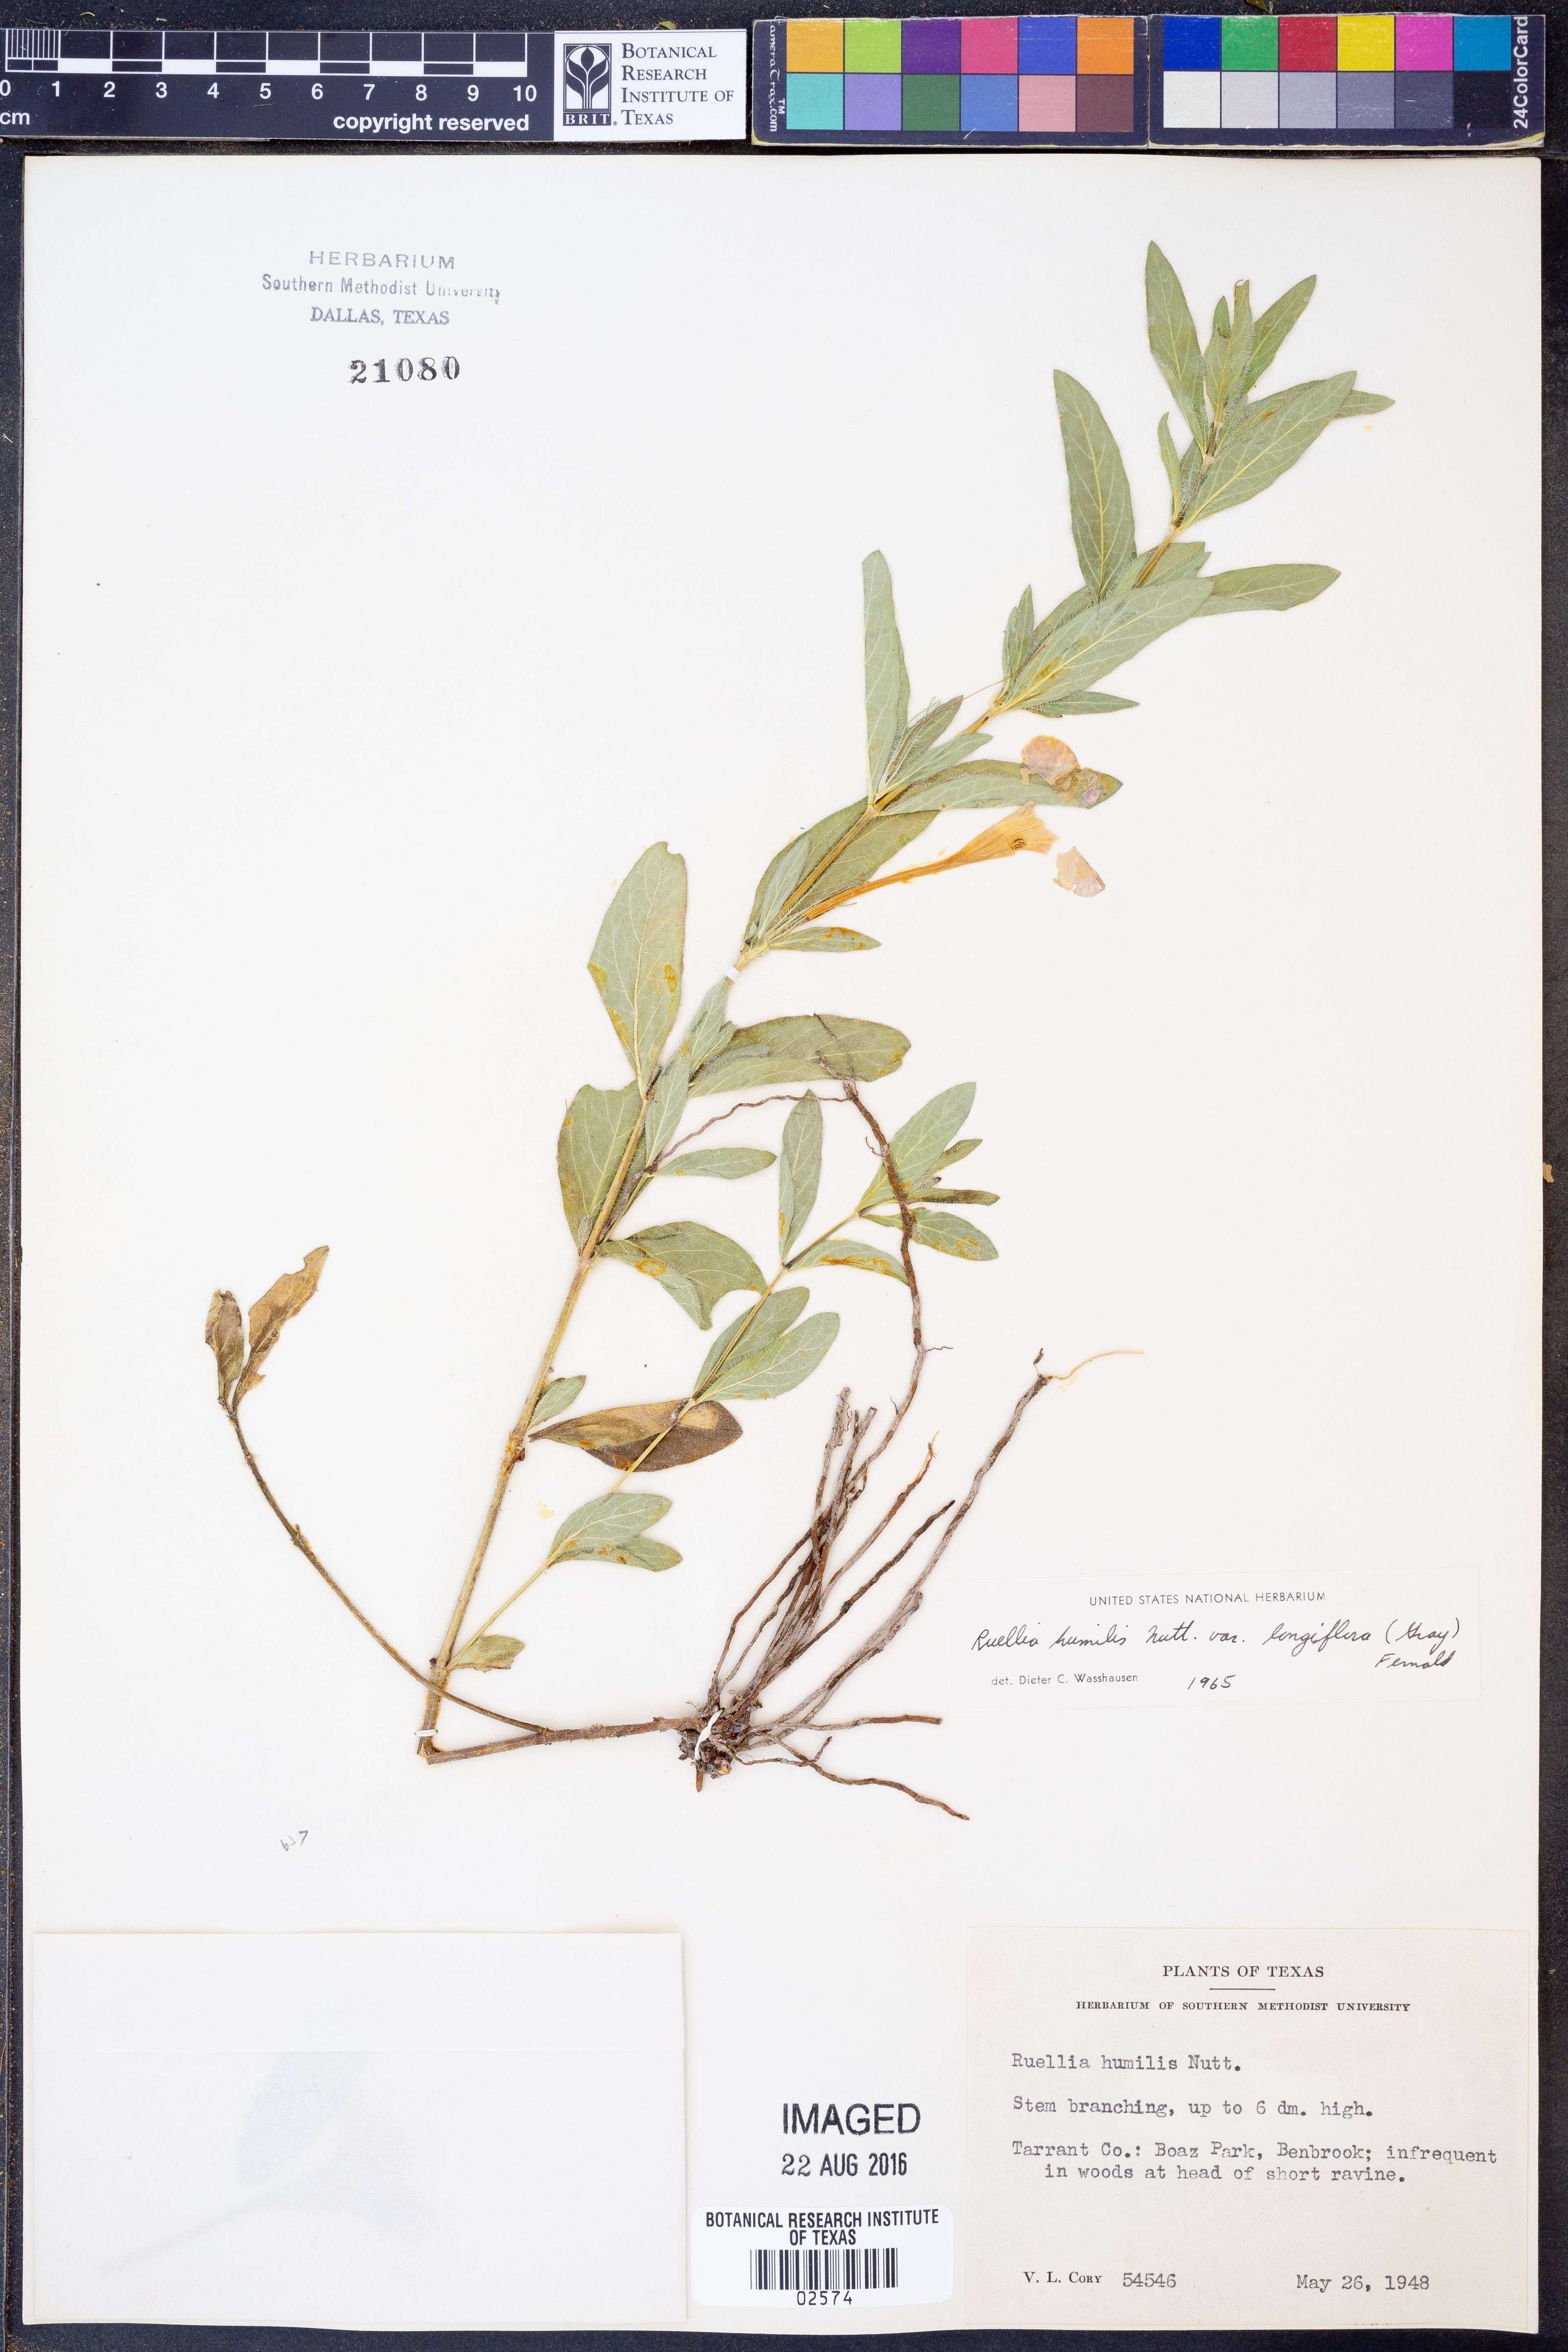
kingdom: Plantae
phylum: Tracheophyta
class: Magnoliopsida
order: Lamiales
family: Acanthaceae
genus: Ruellia
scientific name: Ruellia humilis
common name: Fringe-leaf ruellia
